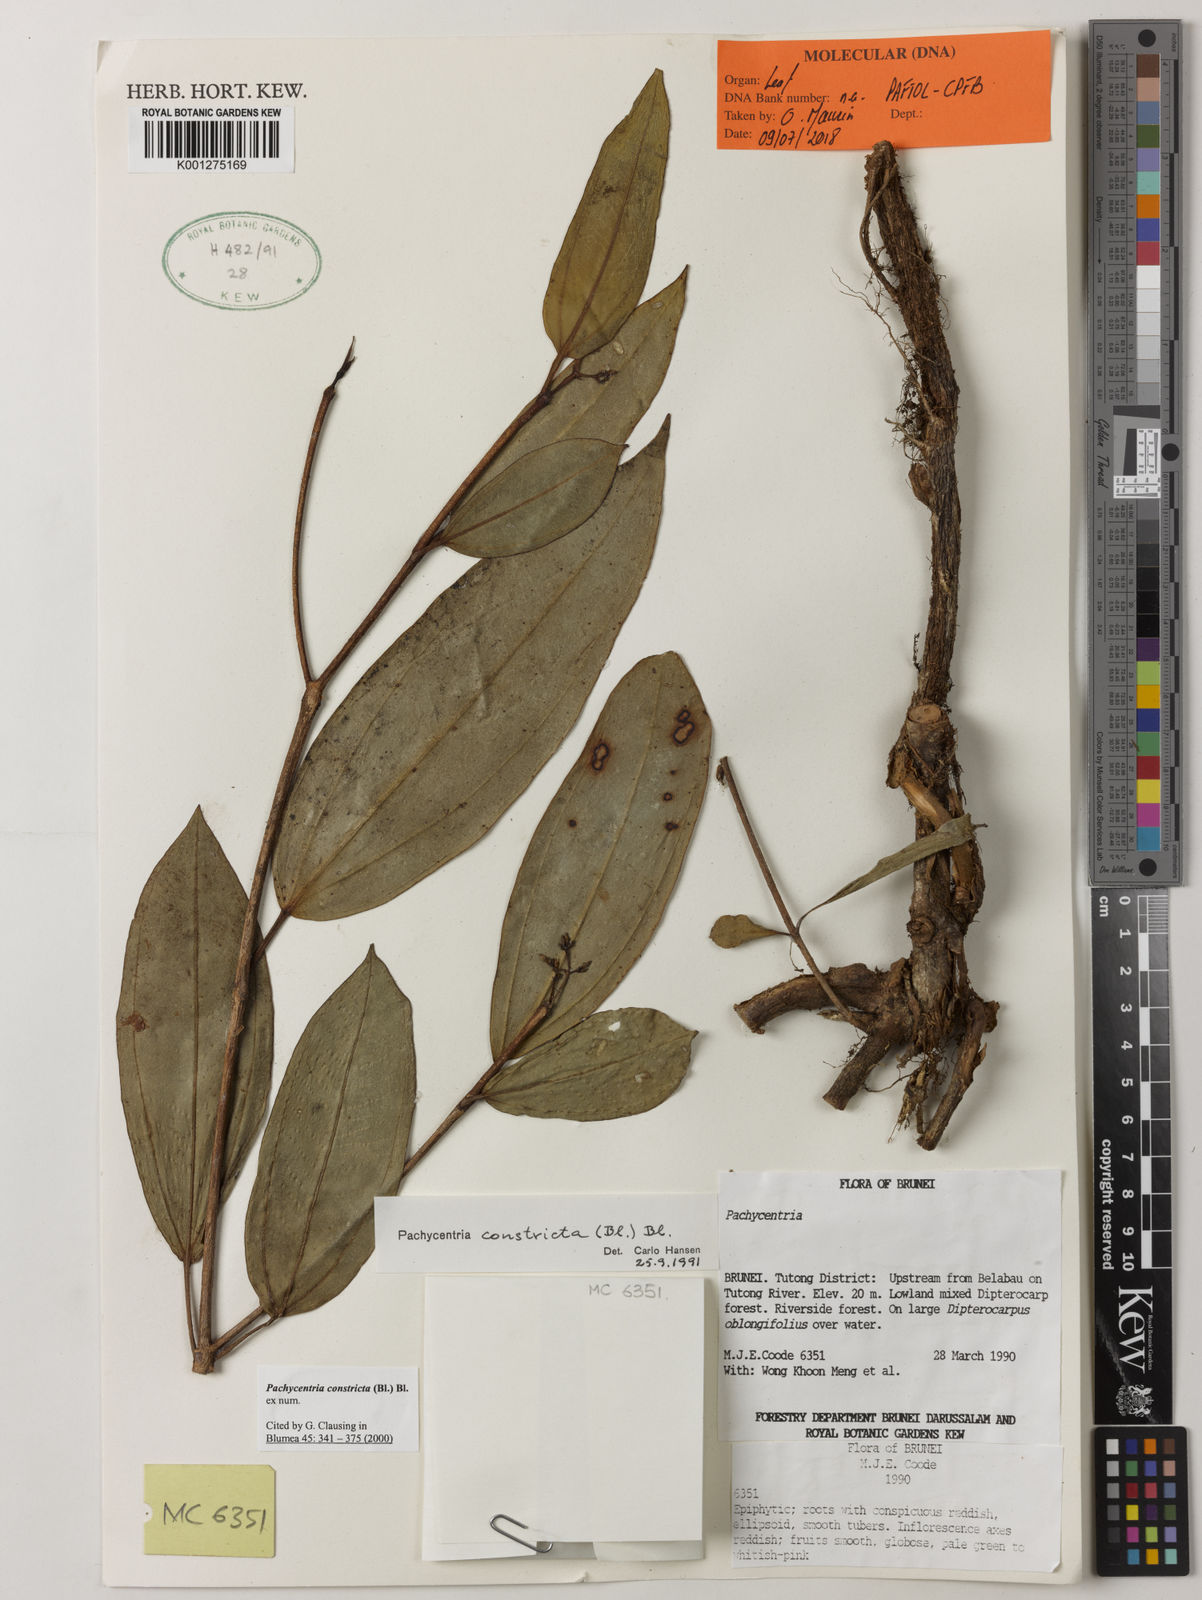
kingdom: Plantae
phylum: Tracheophyta
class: Magnoliopsida
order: Myrtales
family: Melastomataceae
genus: Pachycentria
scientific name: Pachycentria constricta
